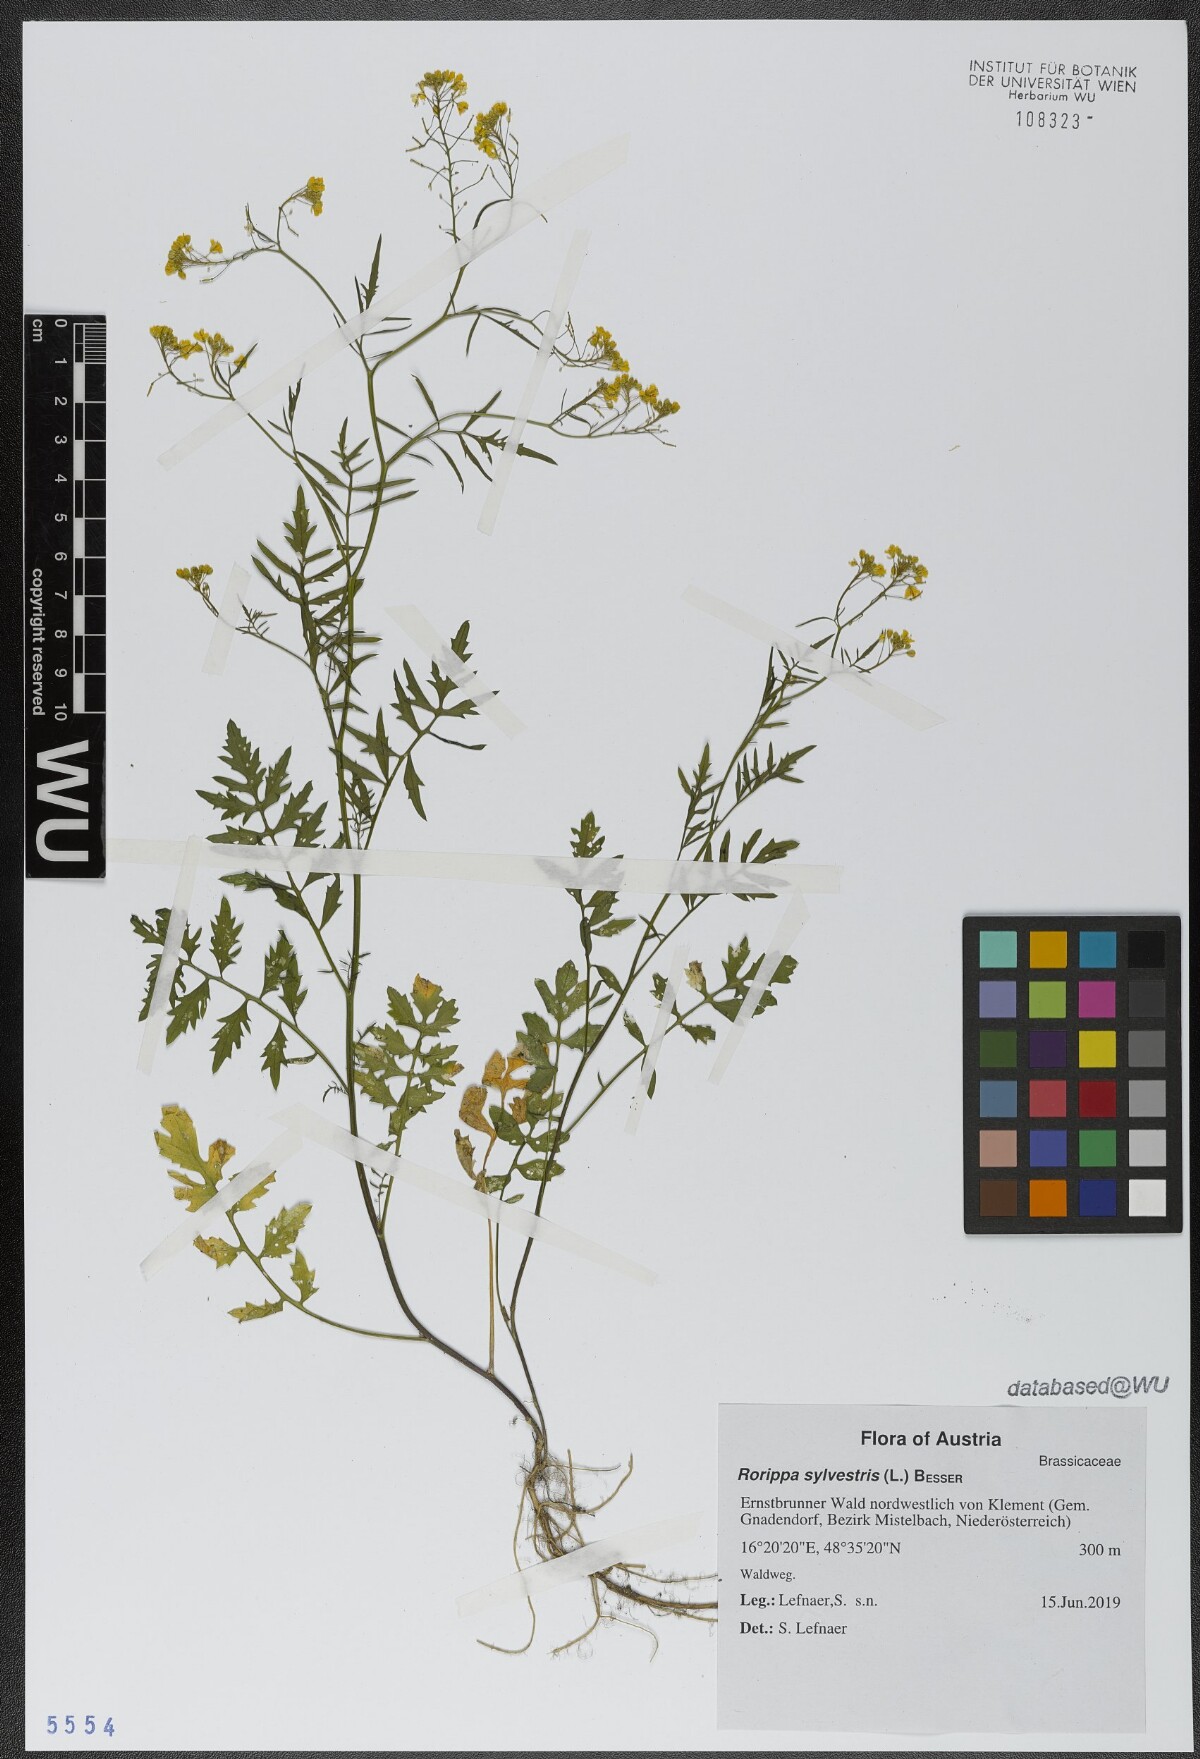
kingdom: Plantae
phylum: Tracheophyta
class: Magnoliopsida
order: Brassicales
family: Brassicaceae
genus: Rorippa
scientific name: Rorippa sylvestris
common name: Creeping yellowcress
